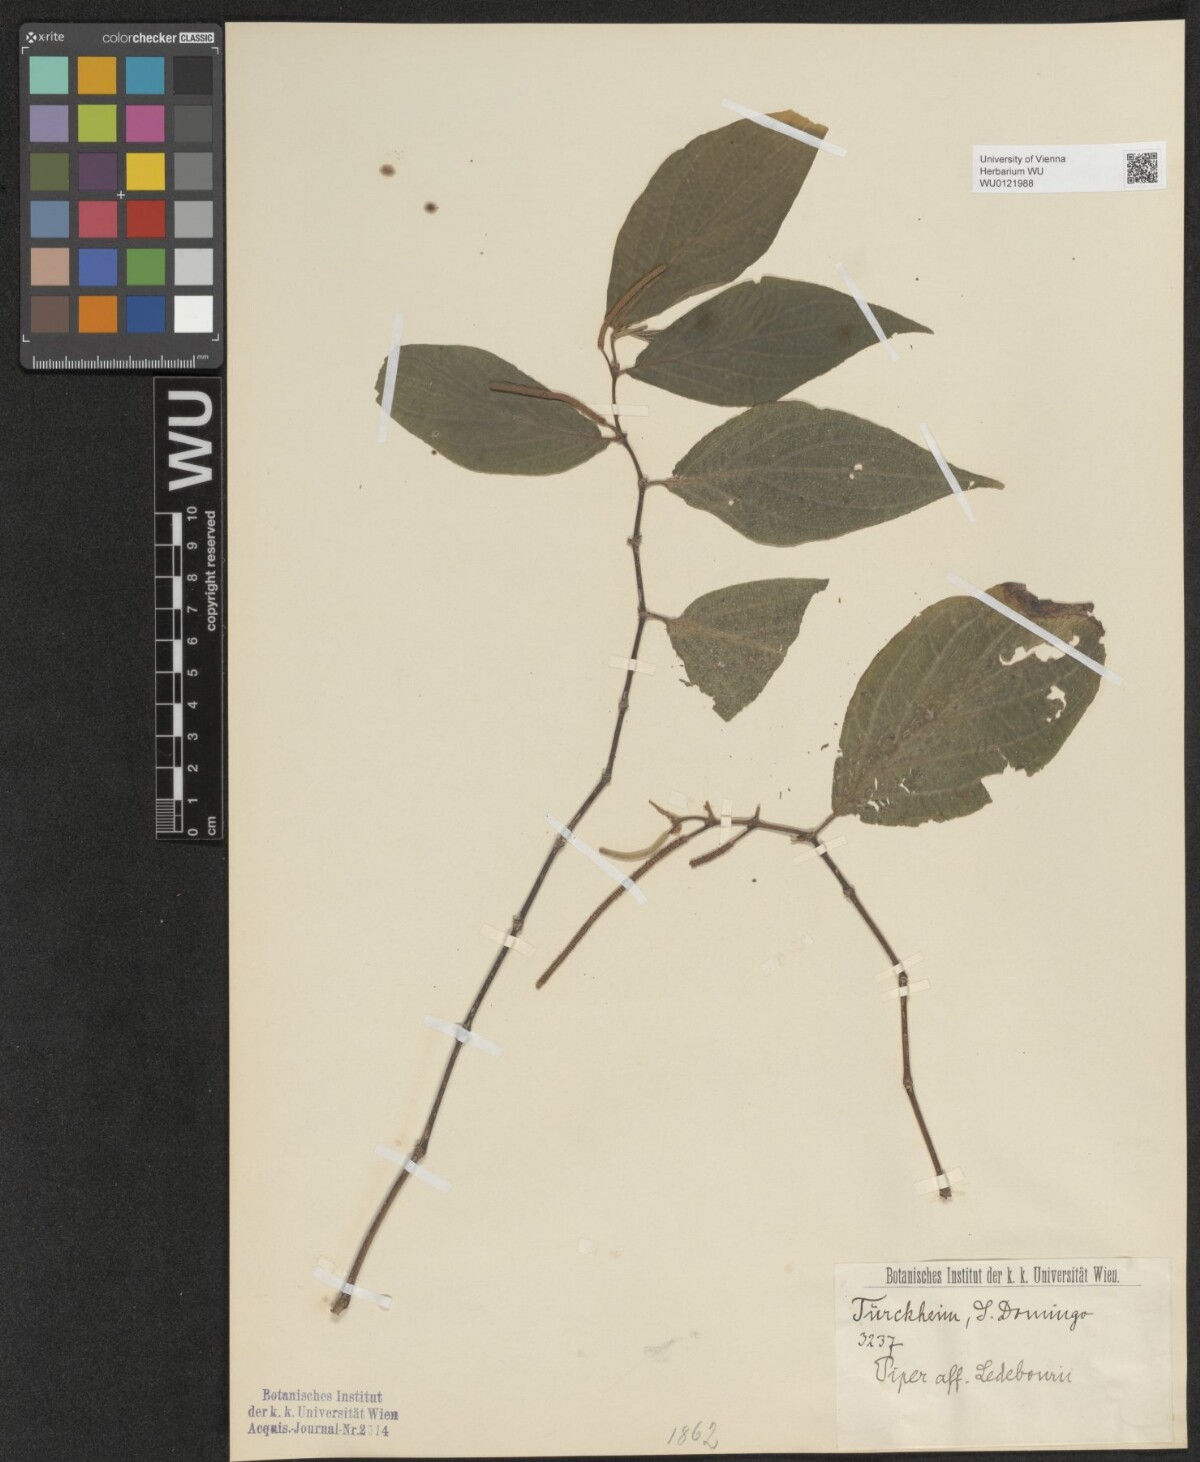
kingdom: Plantae
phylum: Tracheophyta
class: Magnoliopsida
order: Piperales
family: Piperaceae
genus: Piper
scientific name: Piper secundum
